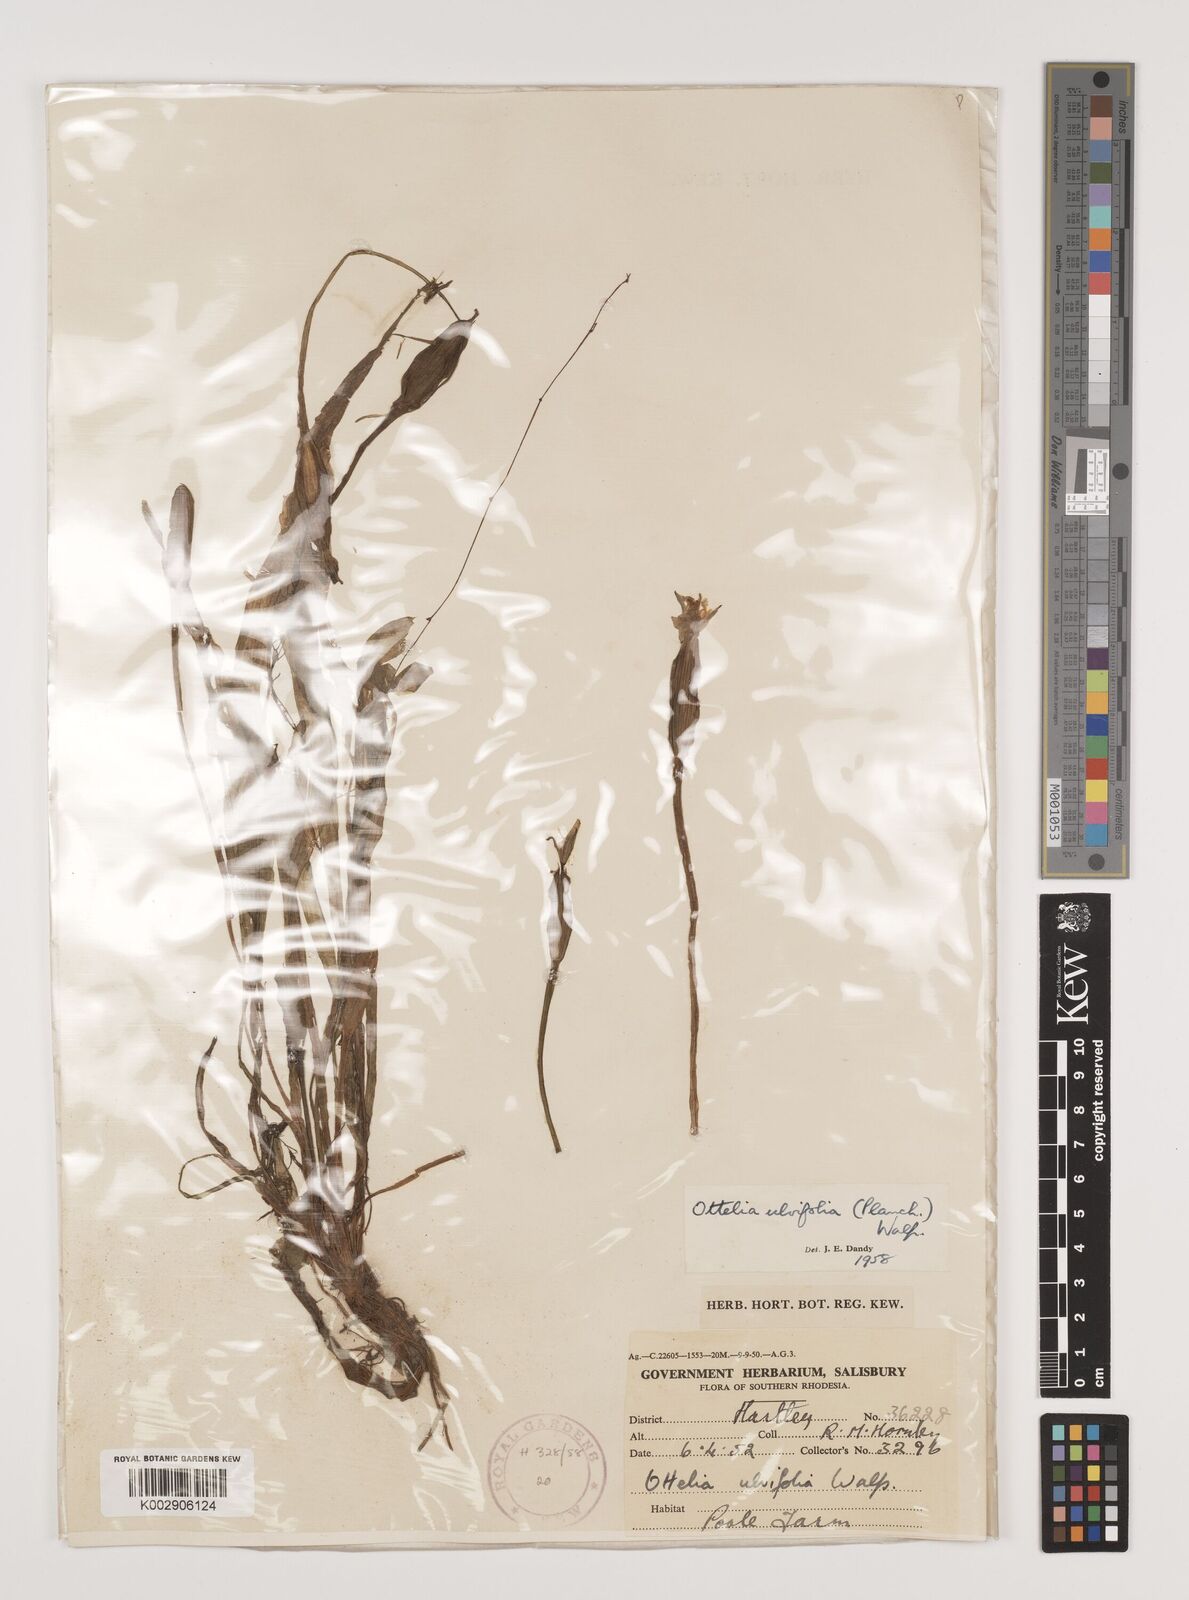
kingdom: Plantae
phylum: Tracheophyta
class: Liliopsida
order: Alismatales
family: Hydrocharitaceae
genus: Ottelia
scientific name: Ottelia ulvifolia
